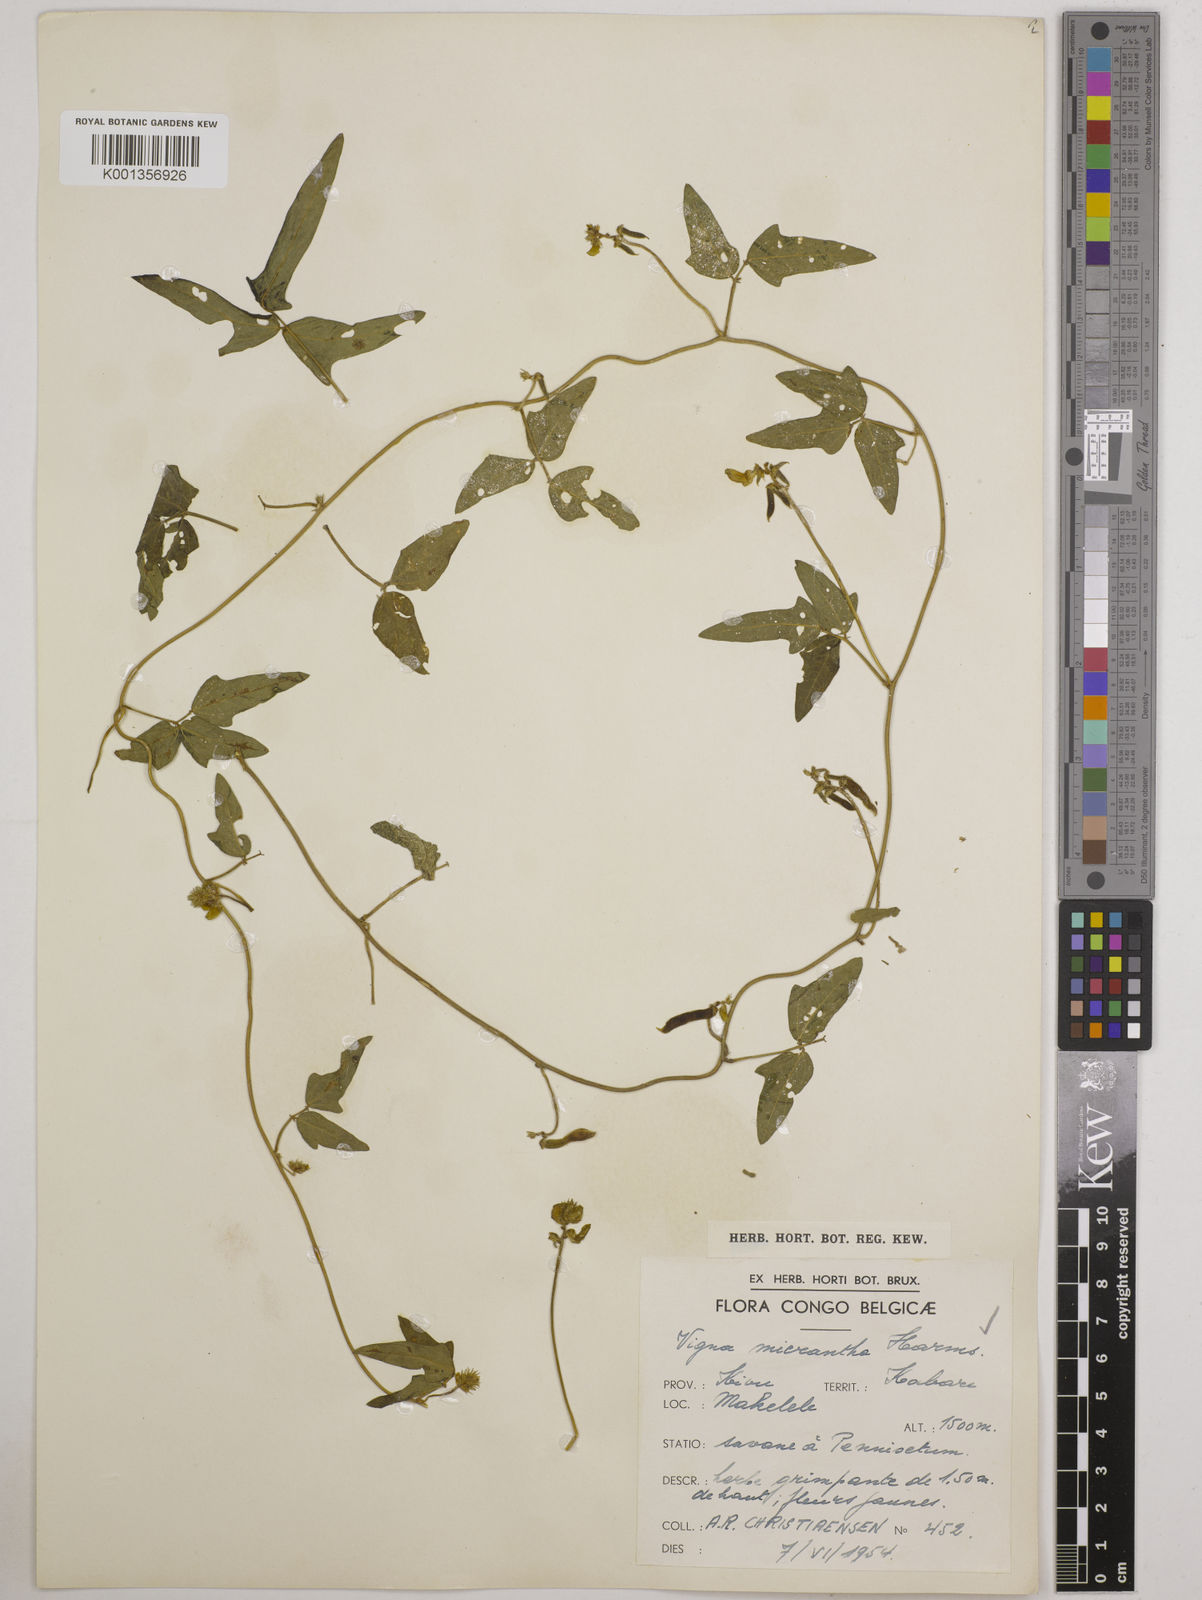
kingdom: Plantae
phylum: Tracheophyta
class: Magnoliopsida
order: Fabales
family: Fabaceae
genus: Vigna
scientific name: Vigna comosa
